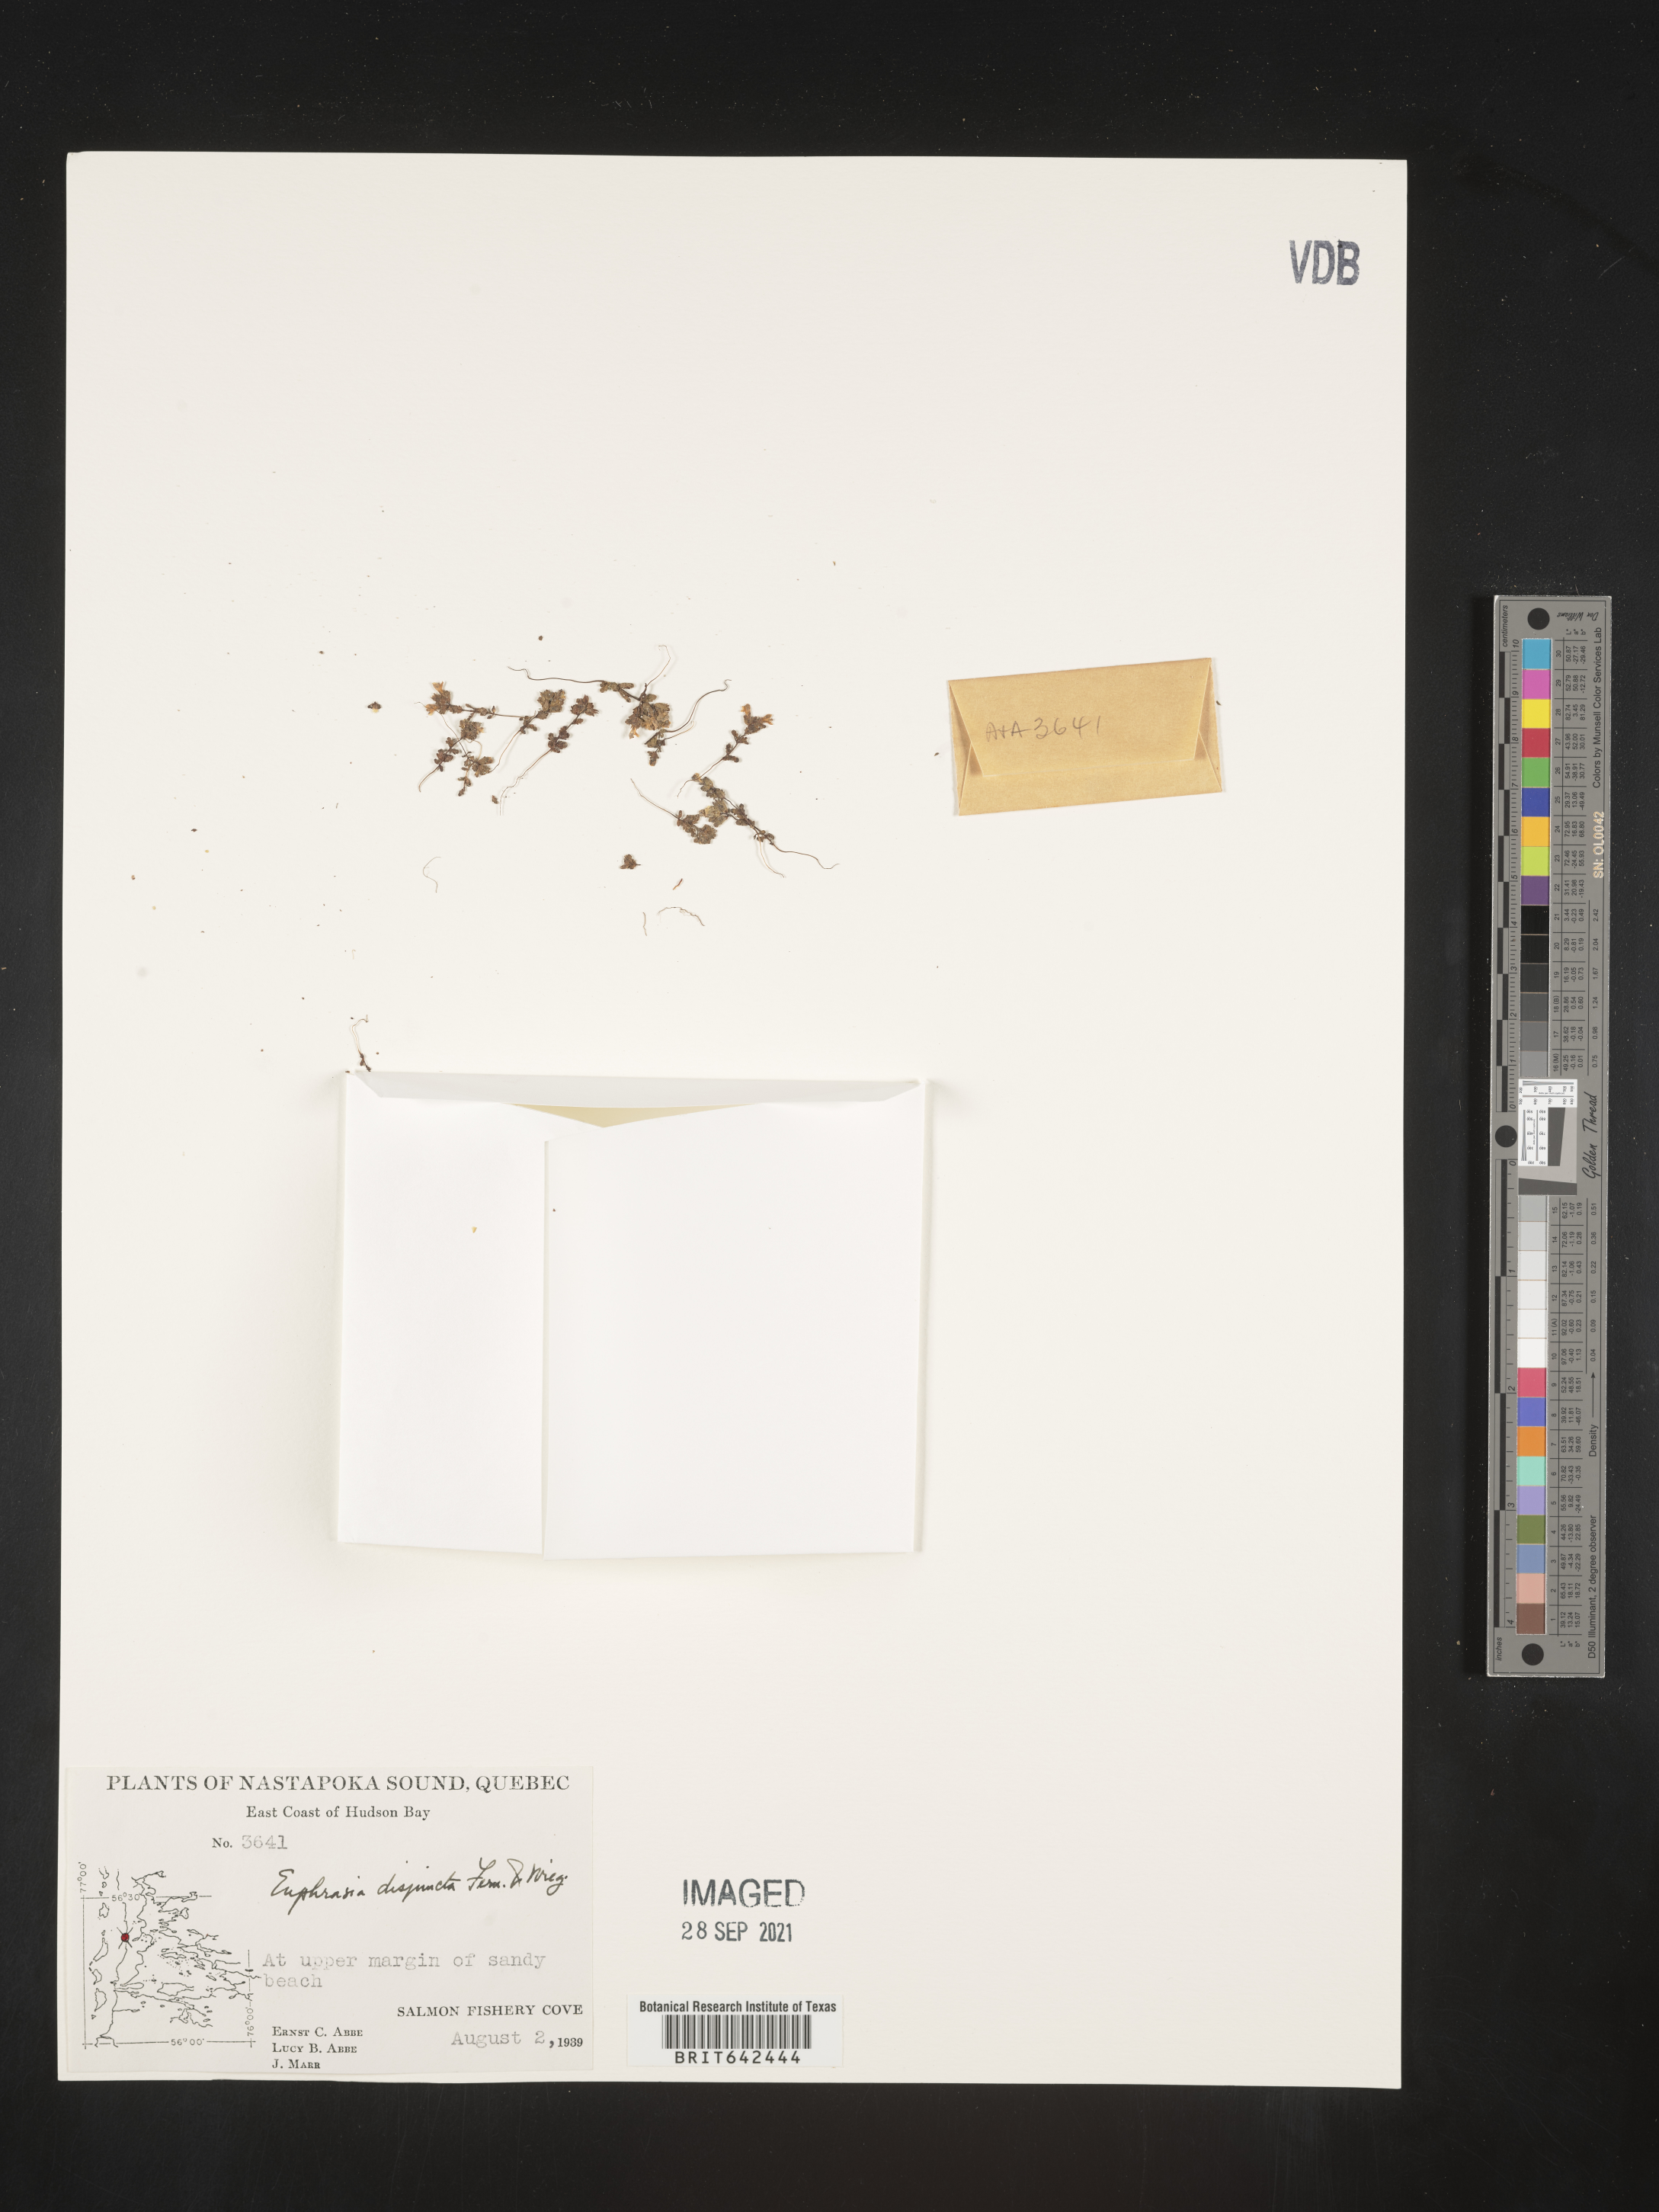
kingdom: Plantae
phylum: Tracheophyta
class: Magnoliopsida
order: Lamiales
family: Orobanchaceae
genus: Euphrasia
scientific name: Euphrasia
